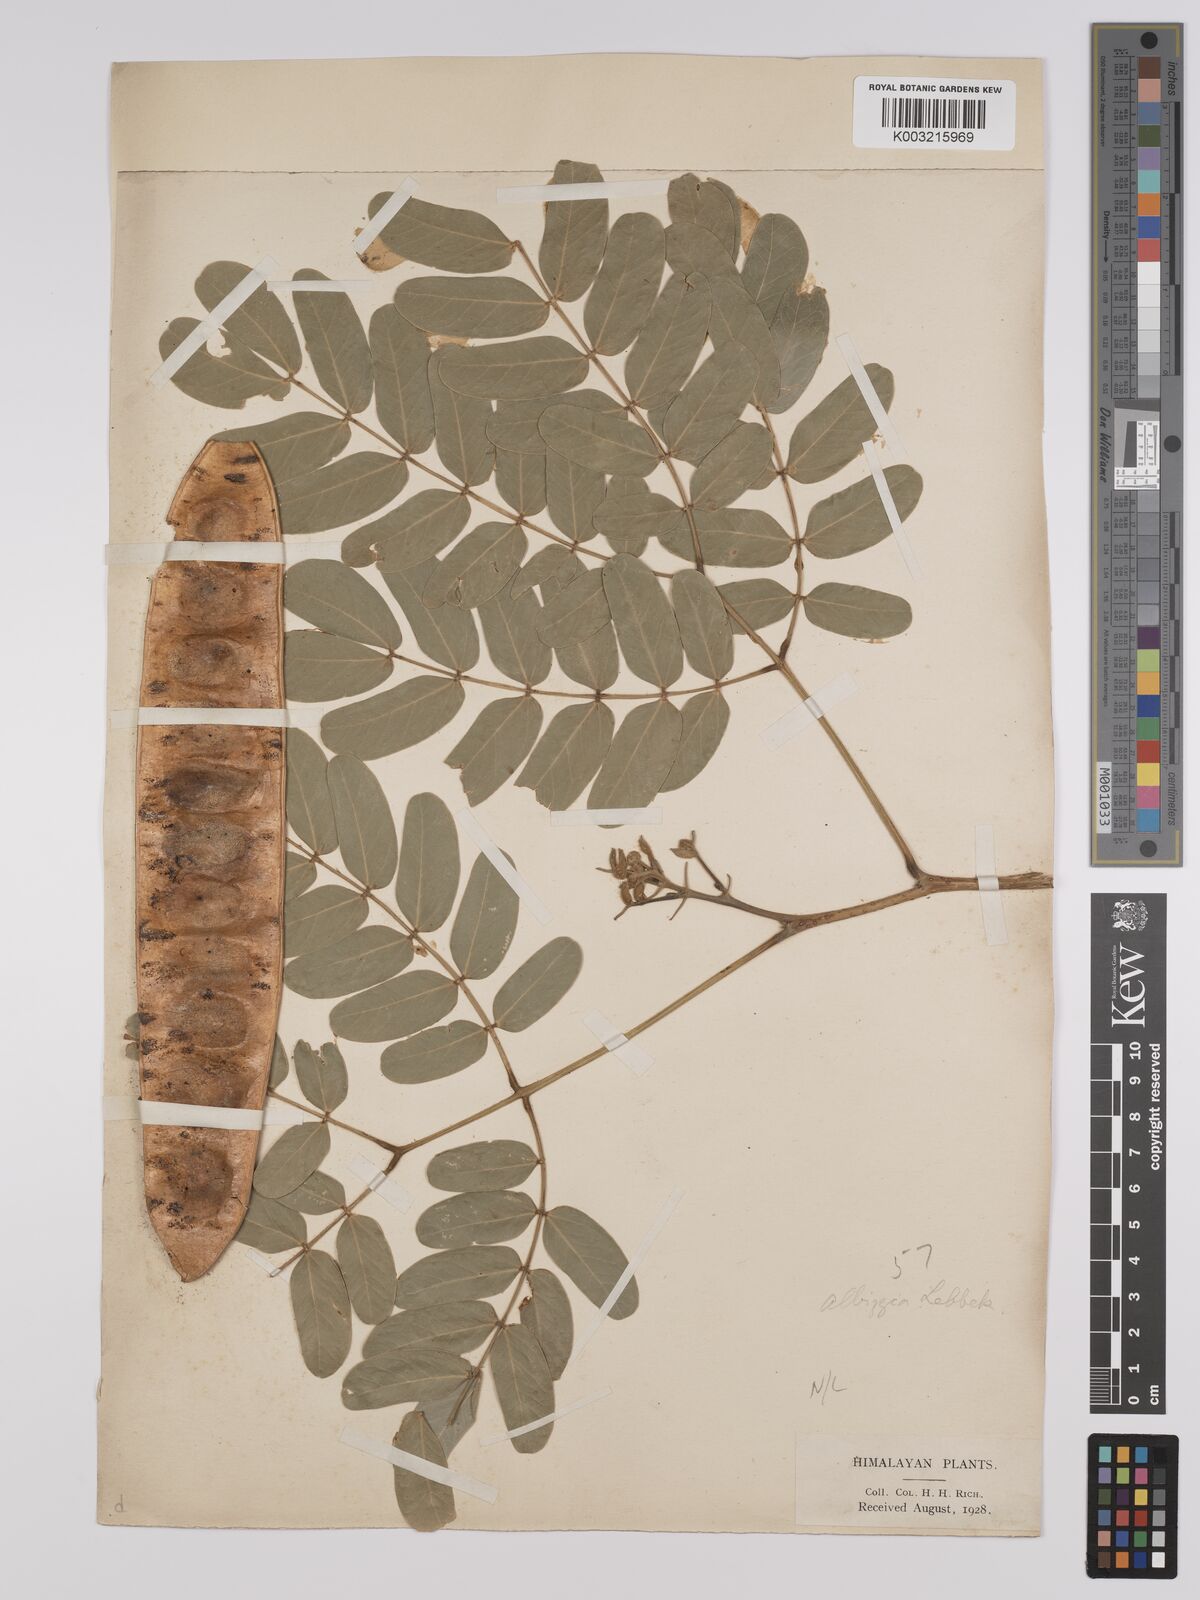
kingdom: Plantae
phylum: Tracheophyta
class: Magnoliopsida
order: Fabales
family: Fabaceae
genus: Albizia
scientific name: Albizia lebbeck
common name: Woman's tongue
